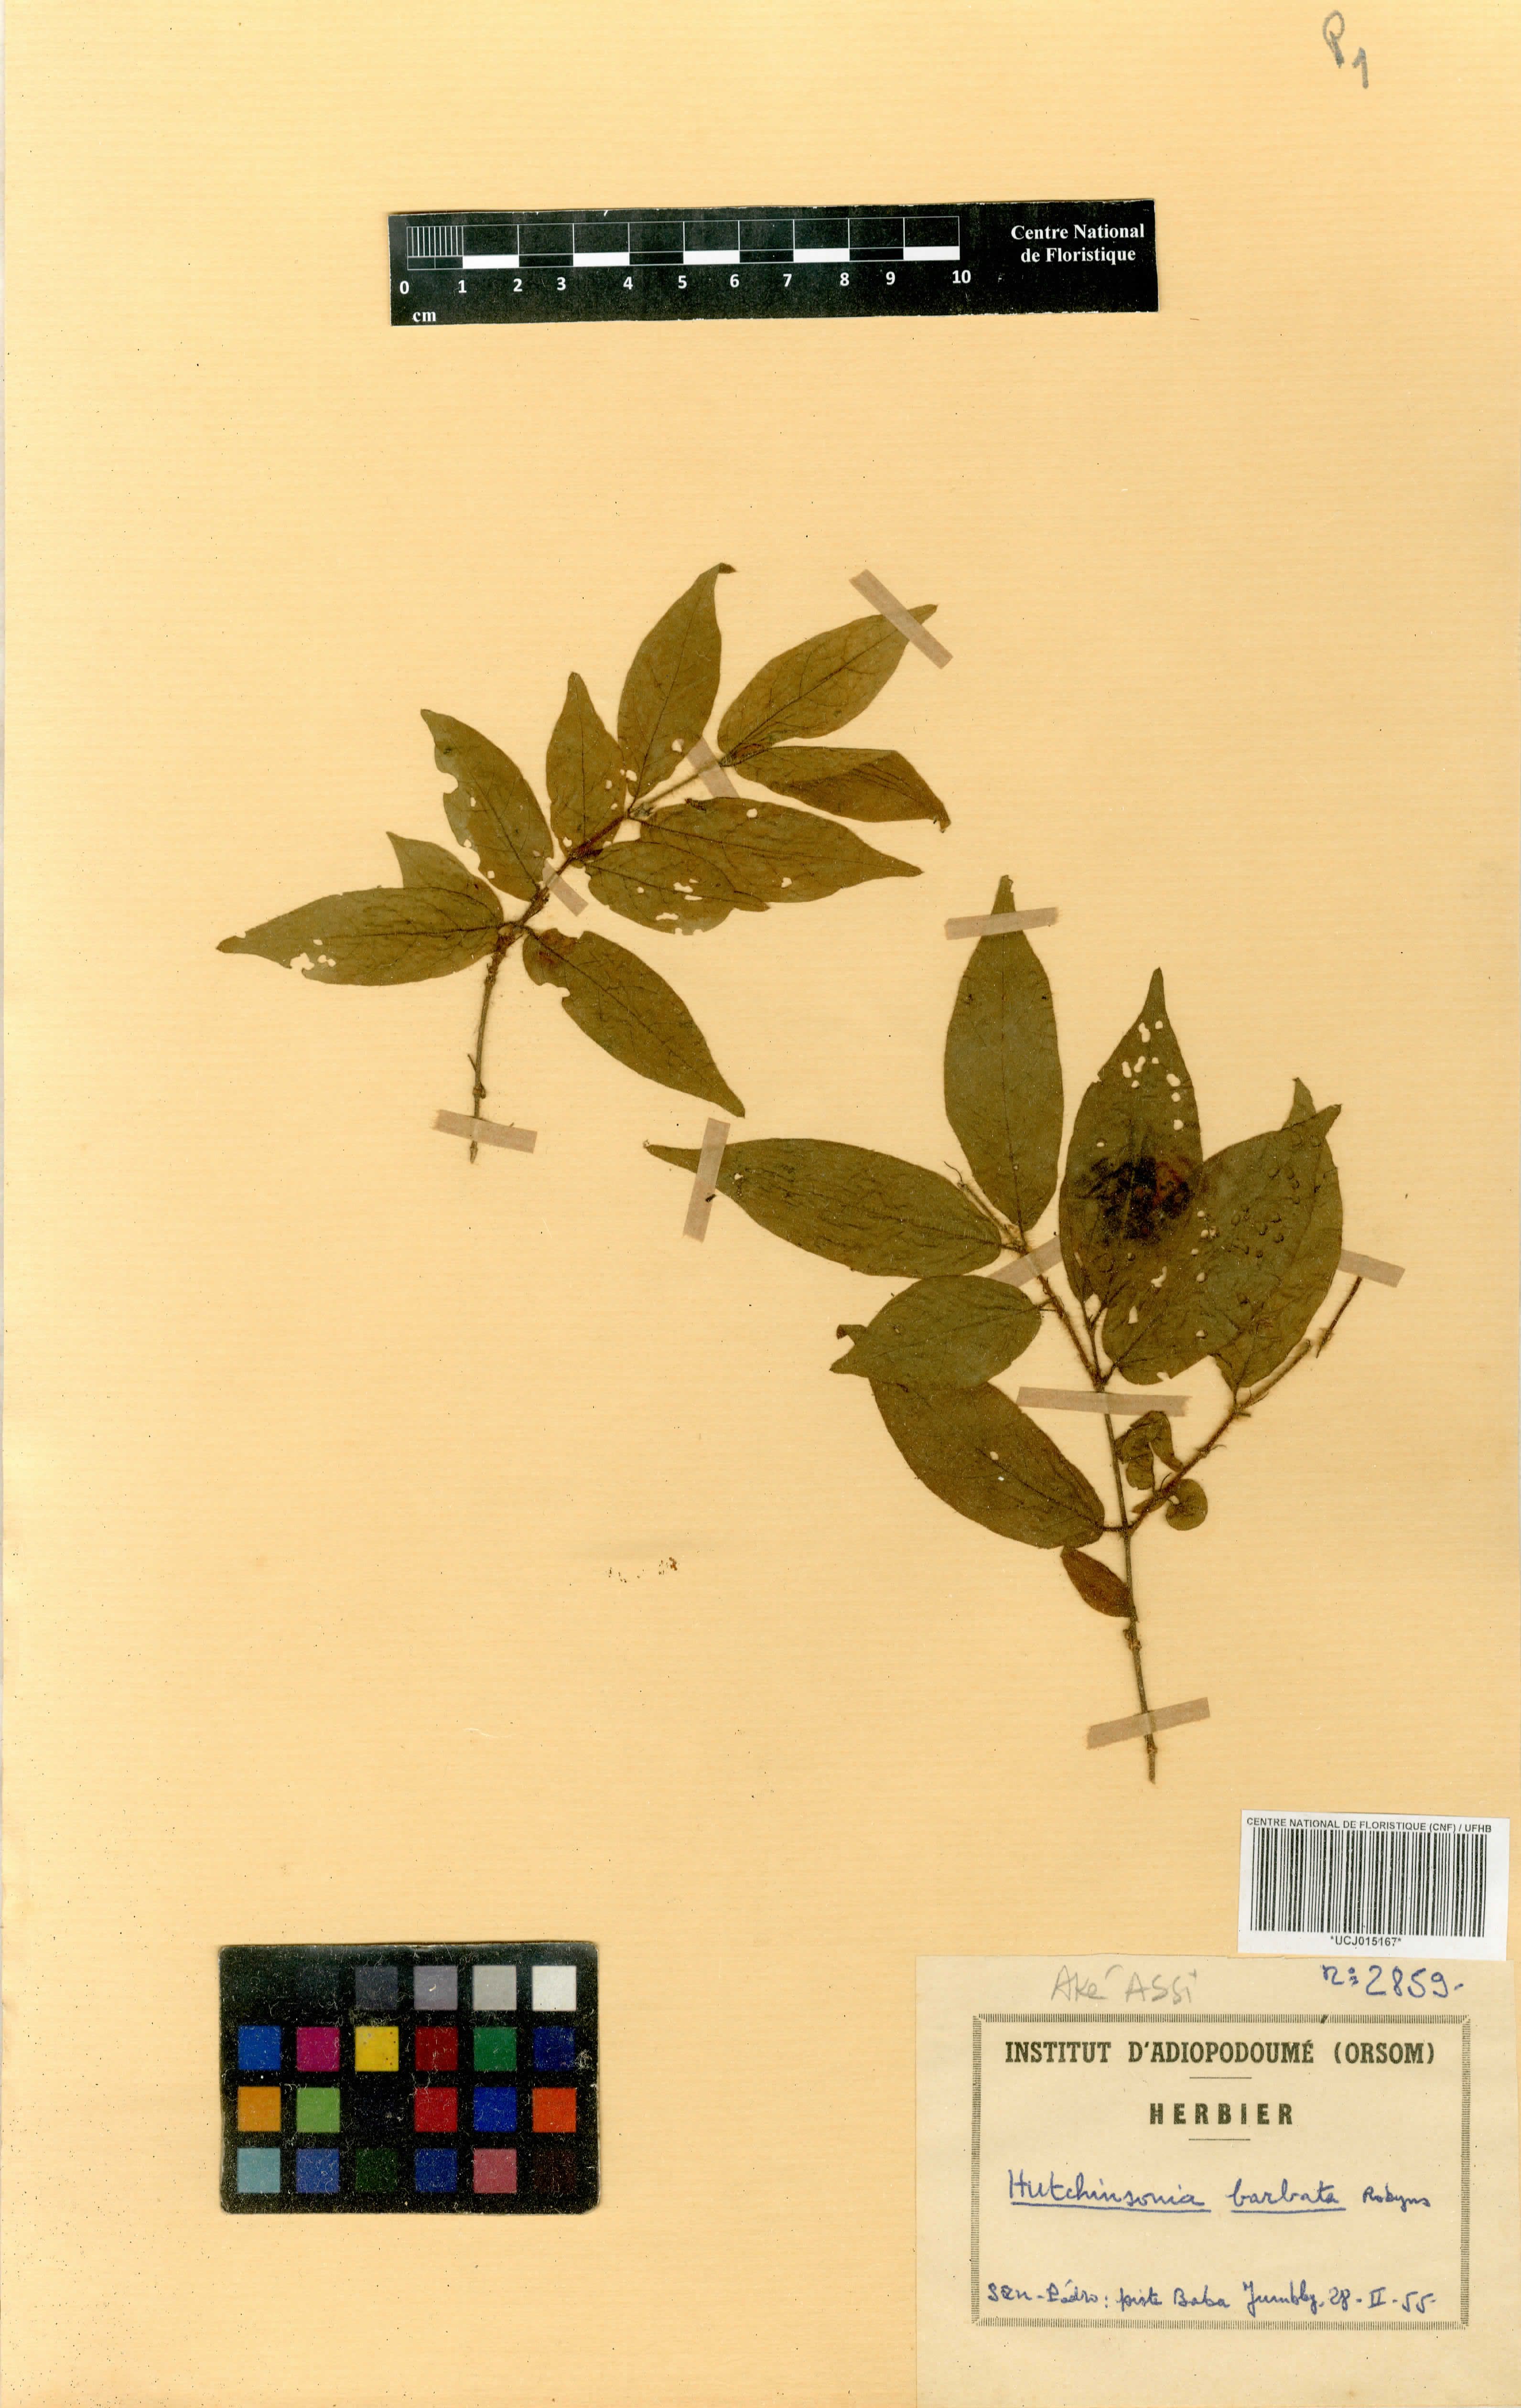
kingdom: Plantae
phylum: Tracheophyta
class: Magnoliopsida
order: Gentianales
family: Rubiaceae
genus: Hutchinsonia
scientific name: Hutchinsonia barbata
